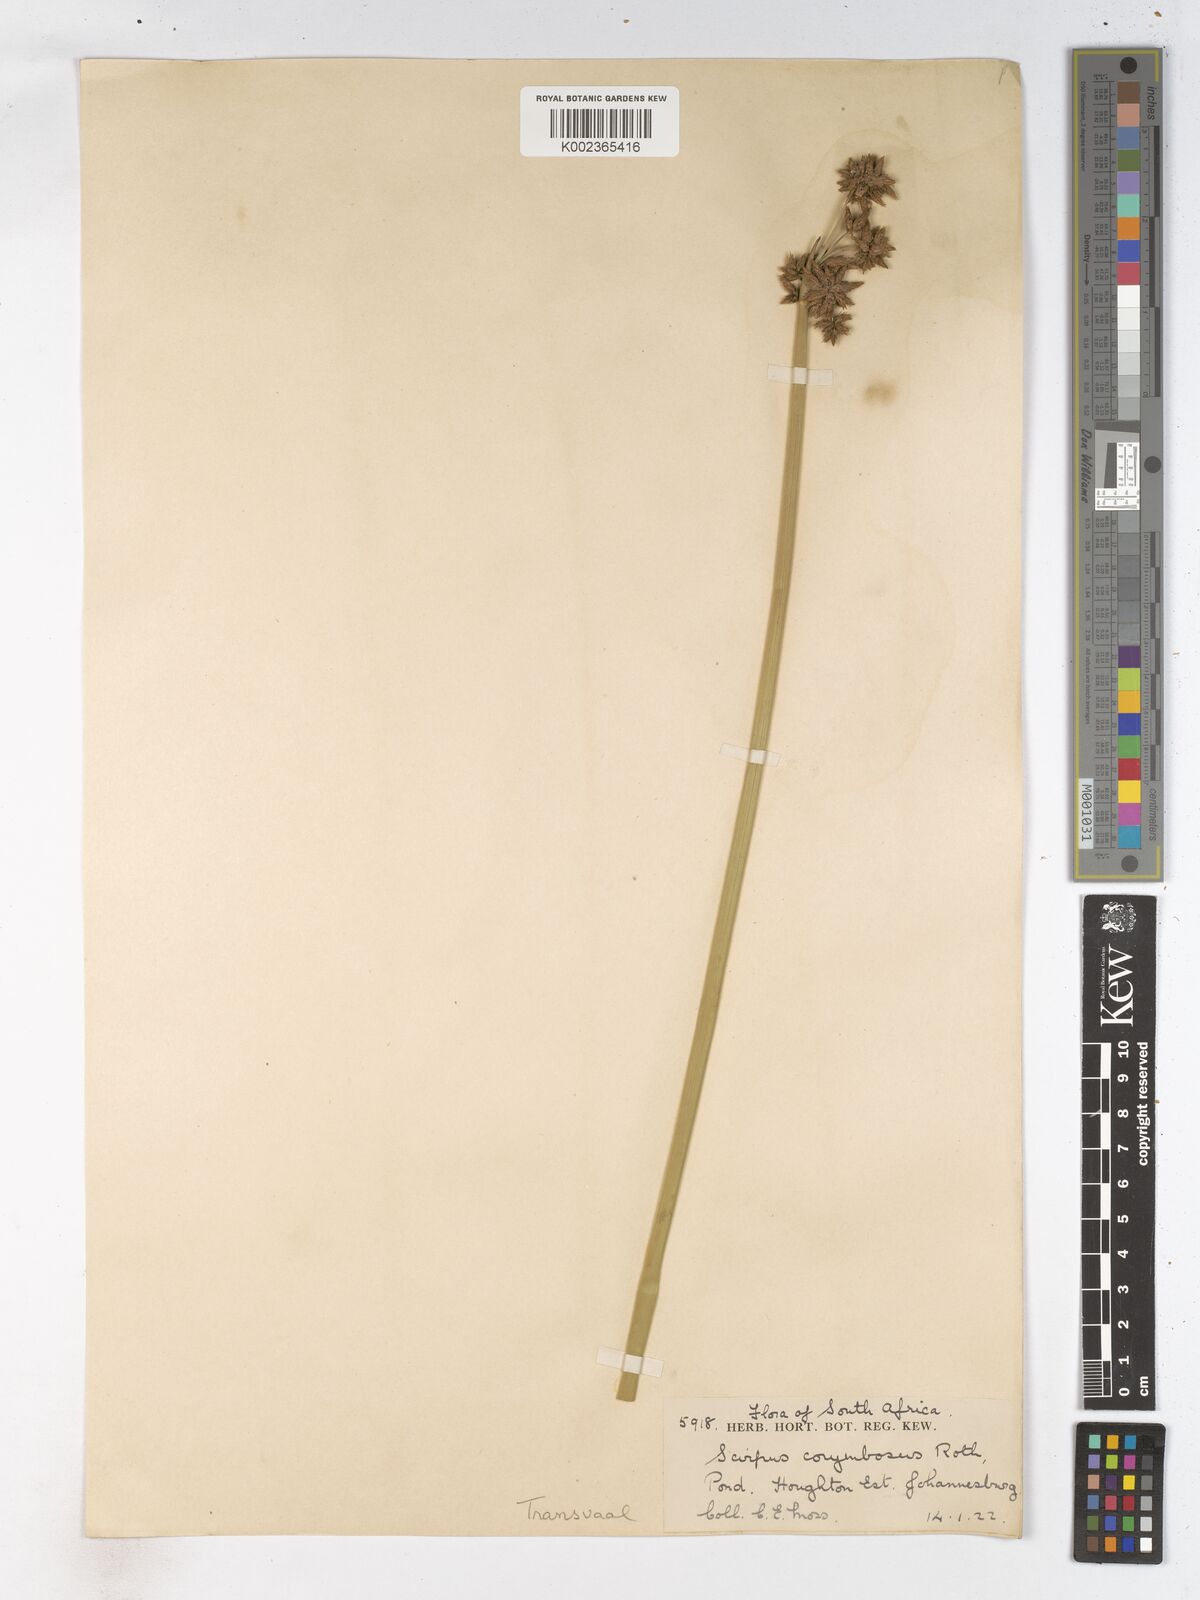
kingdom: Plantae
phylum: Tracheophyta
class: Liliopsida
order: Poales
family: Cyperaceae
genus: Schoenoplectiella
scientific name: Schoenoplectiella brachyceras
